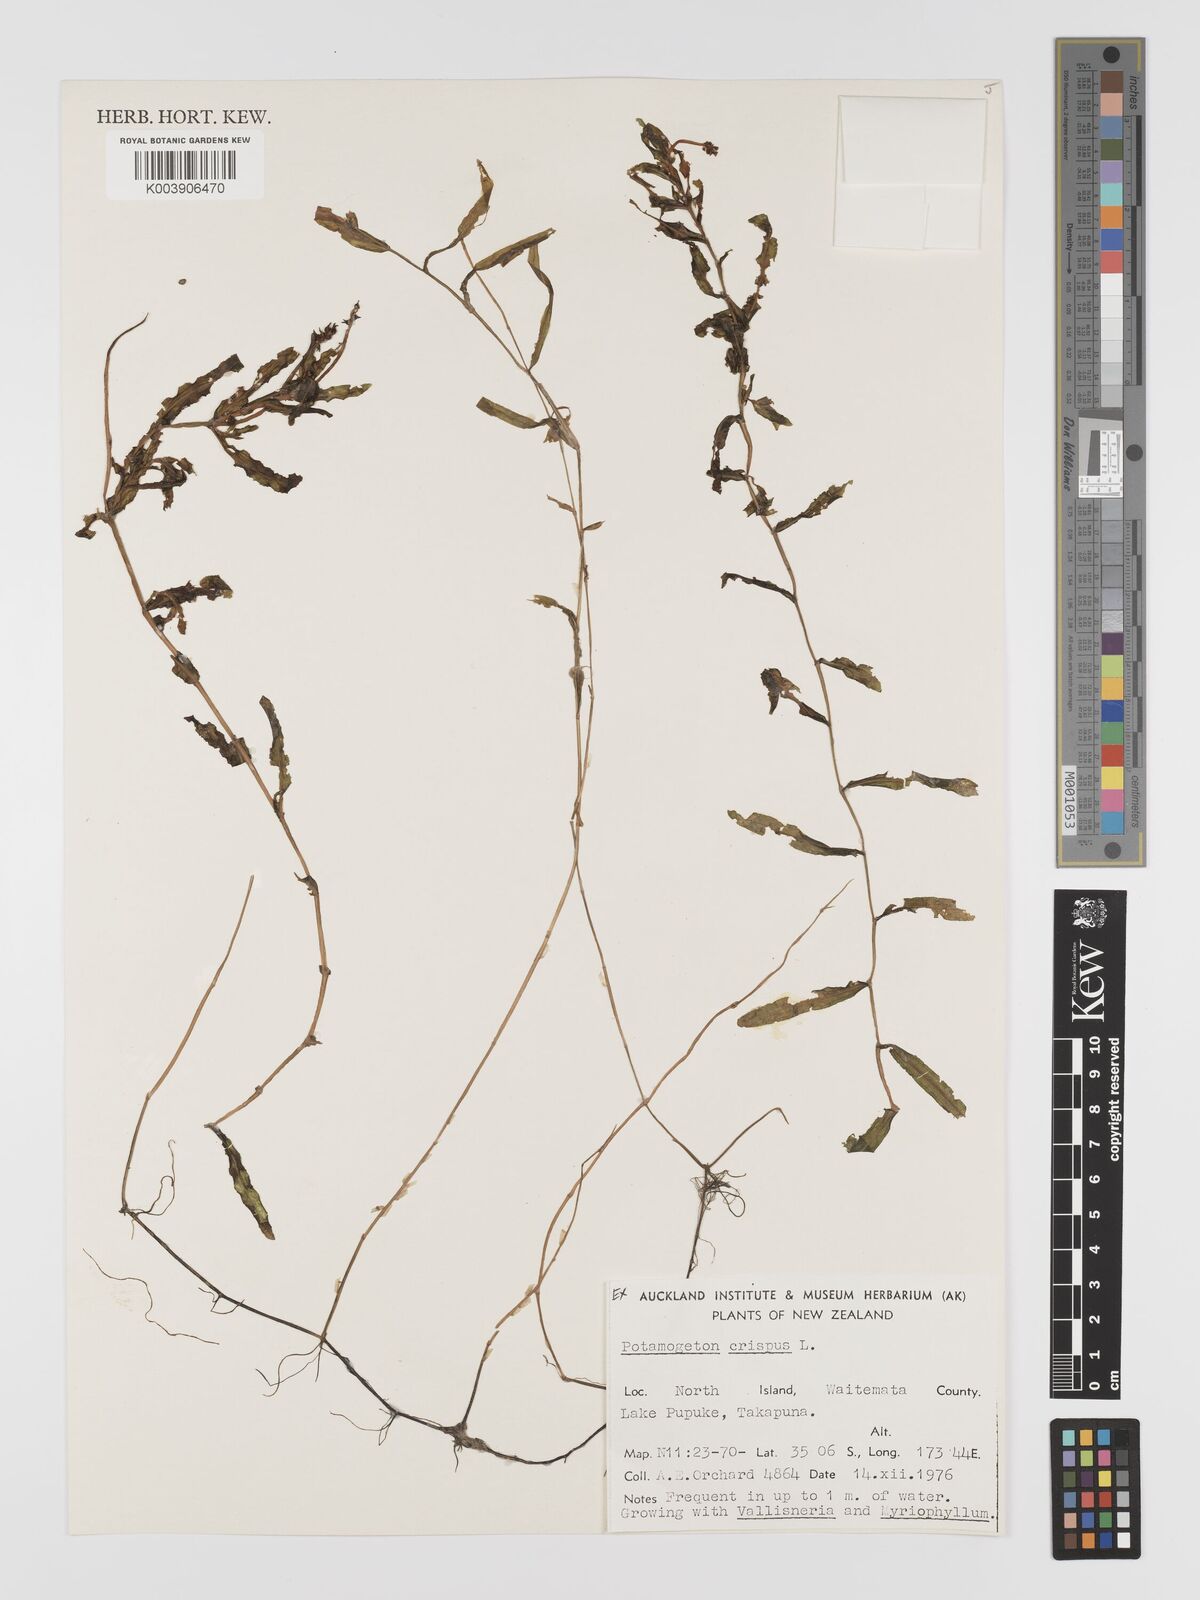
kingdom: Plantae
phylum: Tracheophyta
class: Liliopsida
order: Alismatales
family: Potamogetonaceae
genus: Potamogeton
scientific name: Potamogeton crispus
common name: Curled pondweed
